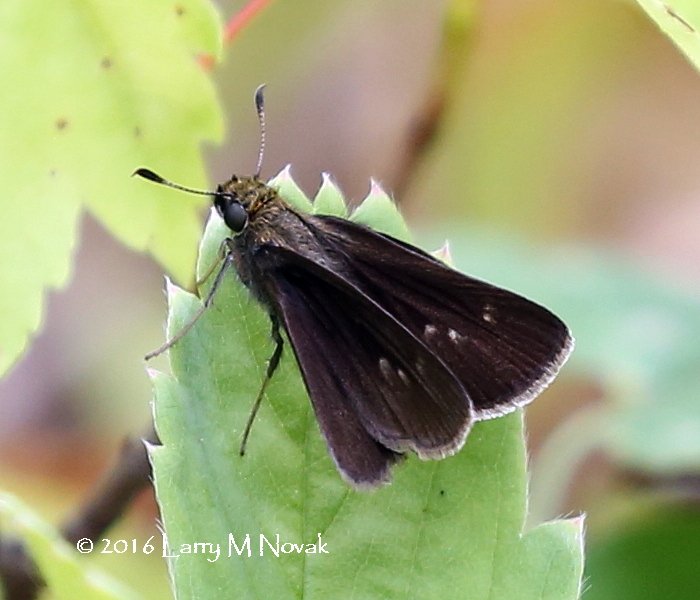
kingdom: Animalia
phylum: Arthropoda
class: Insecta
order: Lepidoptera
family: Hesperiidae
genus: Euphyes
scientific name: Euphyes vestris
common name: Dun Skipper
